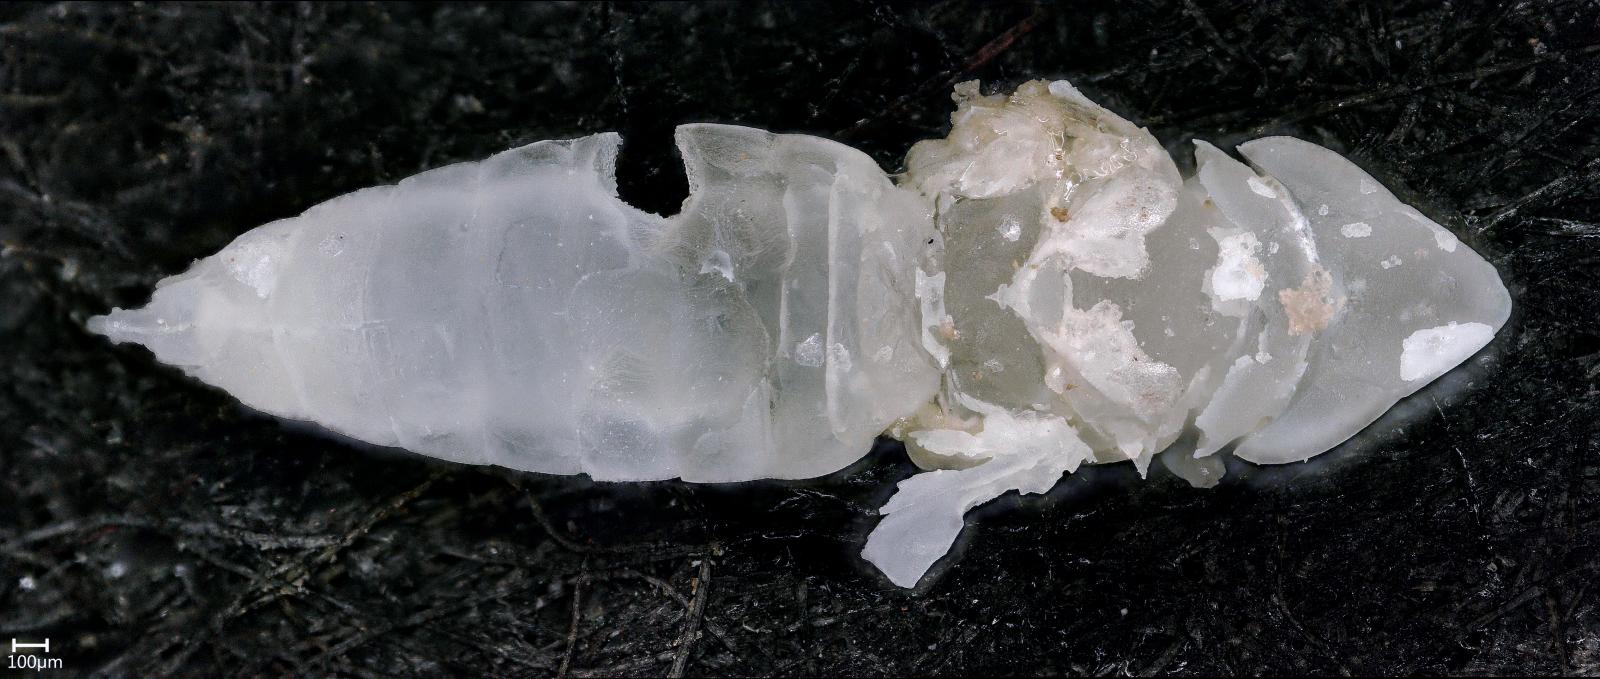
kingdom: Animalia
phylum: Arthropoda
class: Insecta
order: Hemiptera
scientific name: Hemiptera
